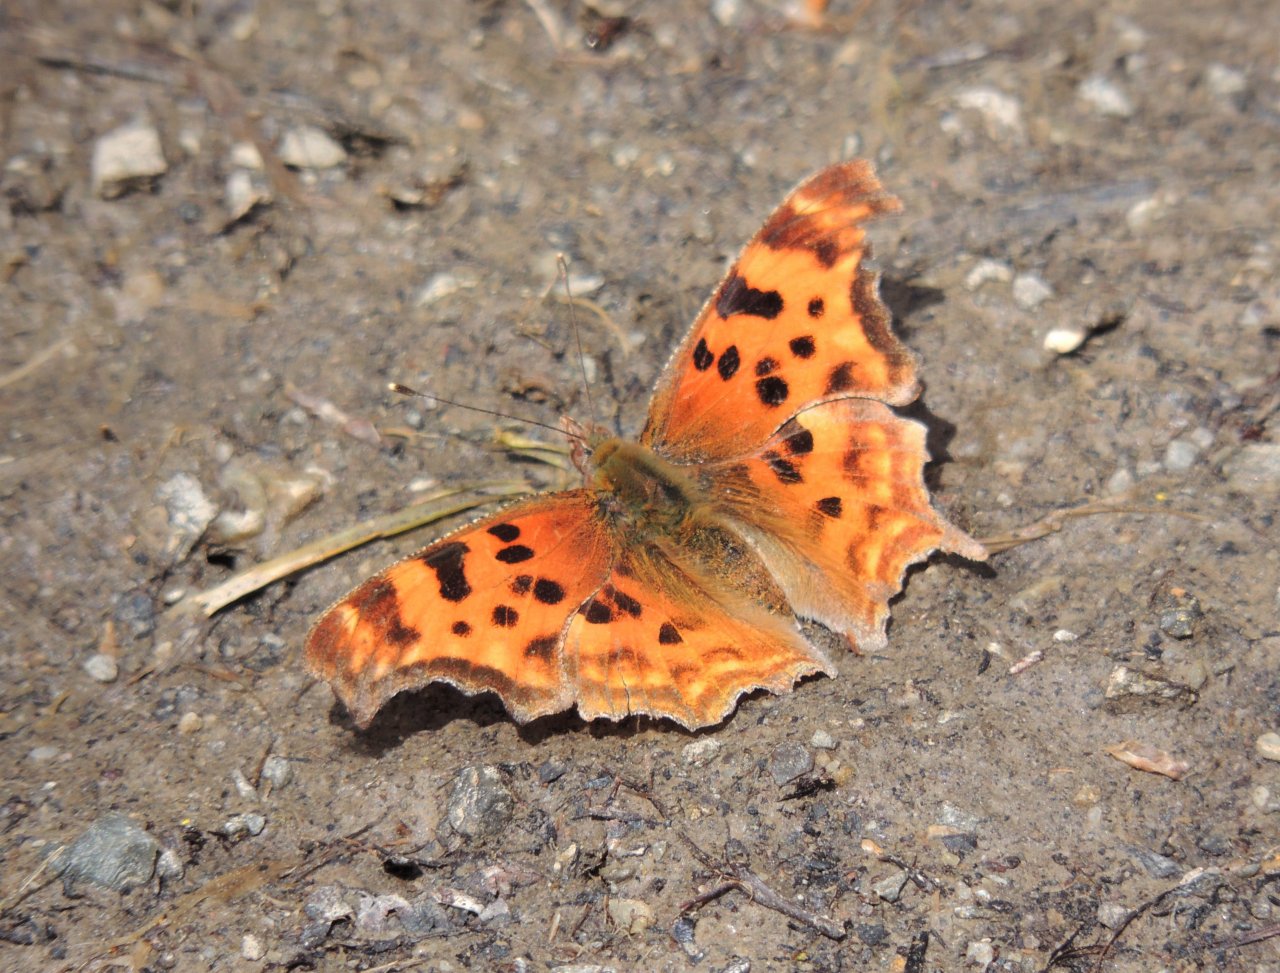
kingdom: Animalia
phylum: Arthropoda
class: Insecta
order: Lepidoptera
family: Nymphalidae
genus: Polygonia
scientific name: Polygonia satyrus
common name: Satyr Comma
